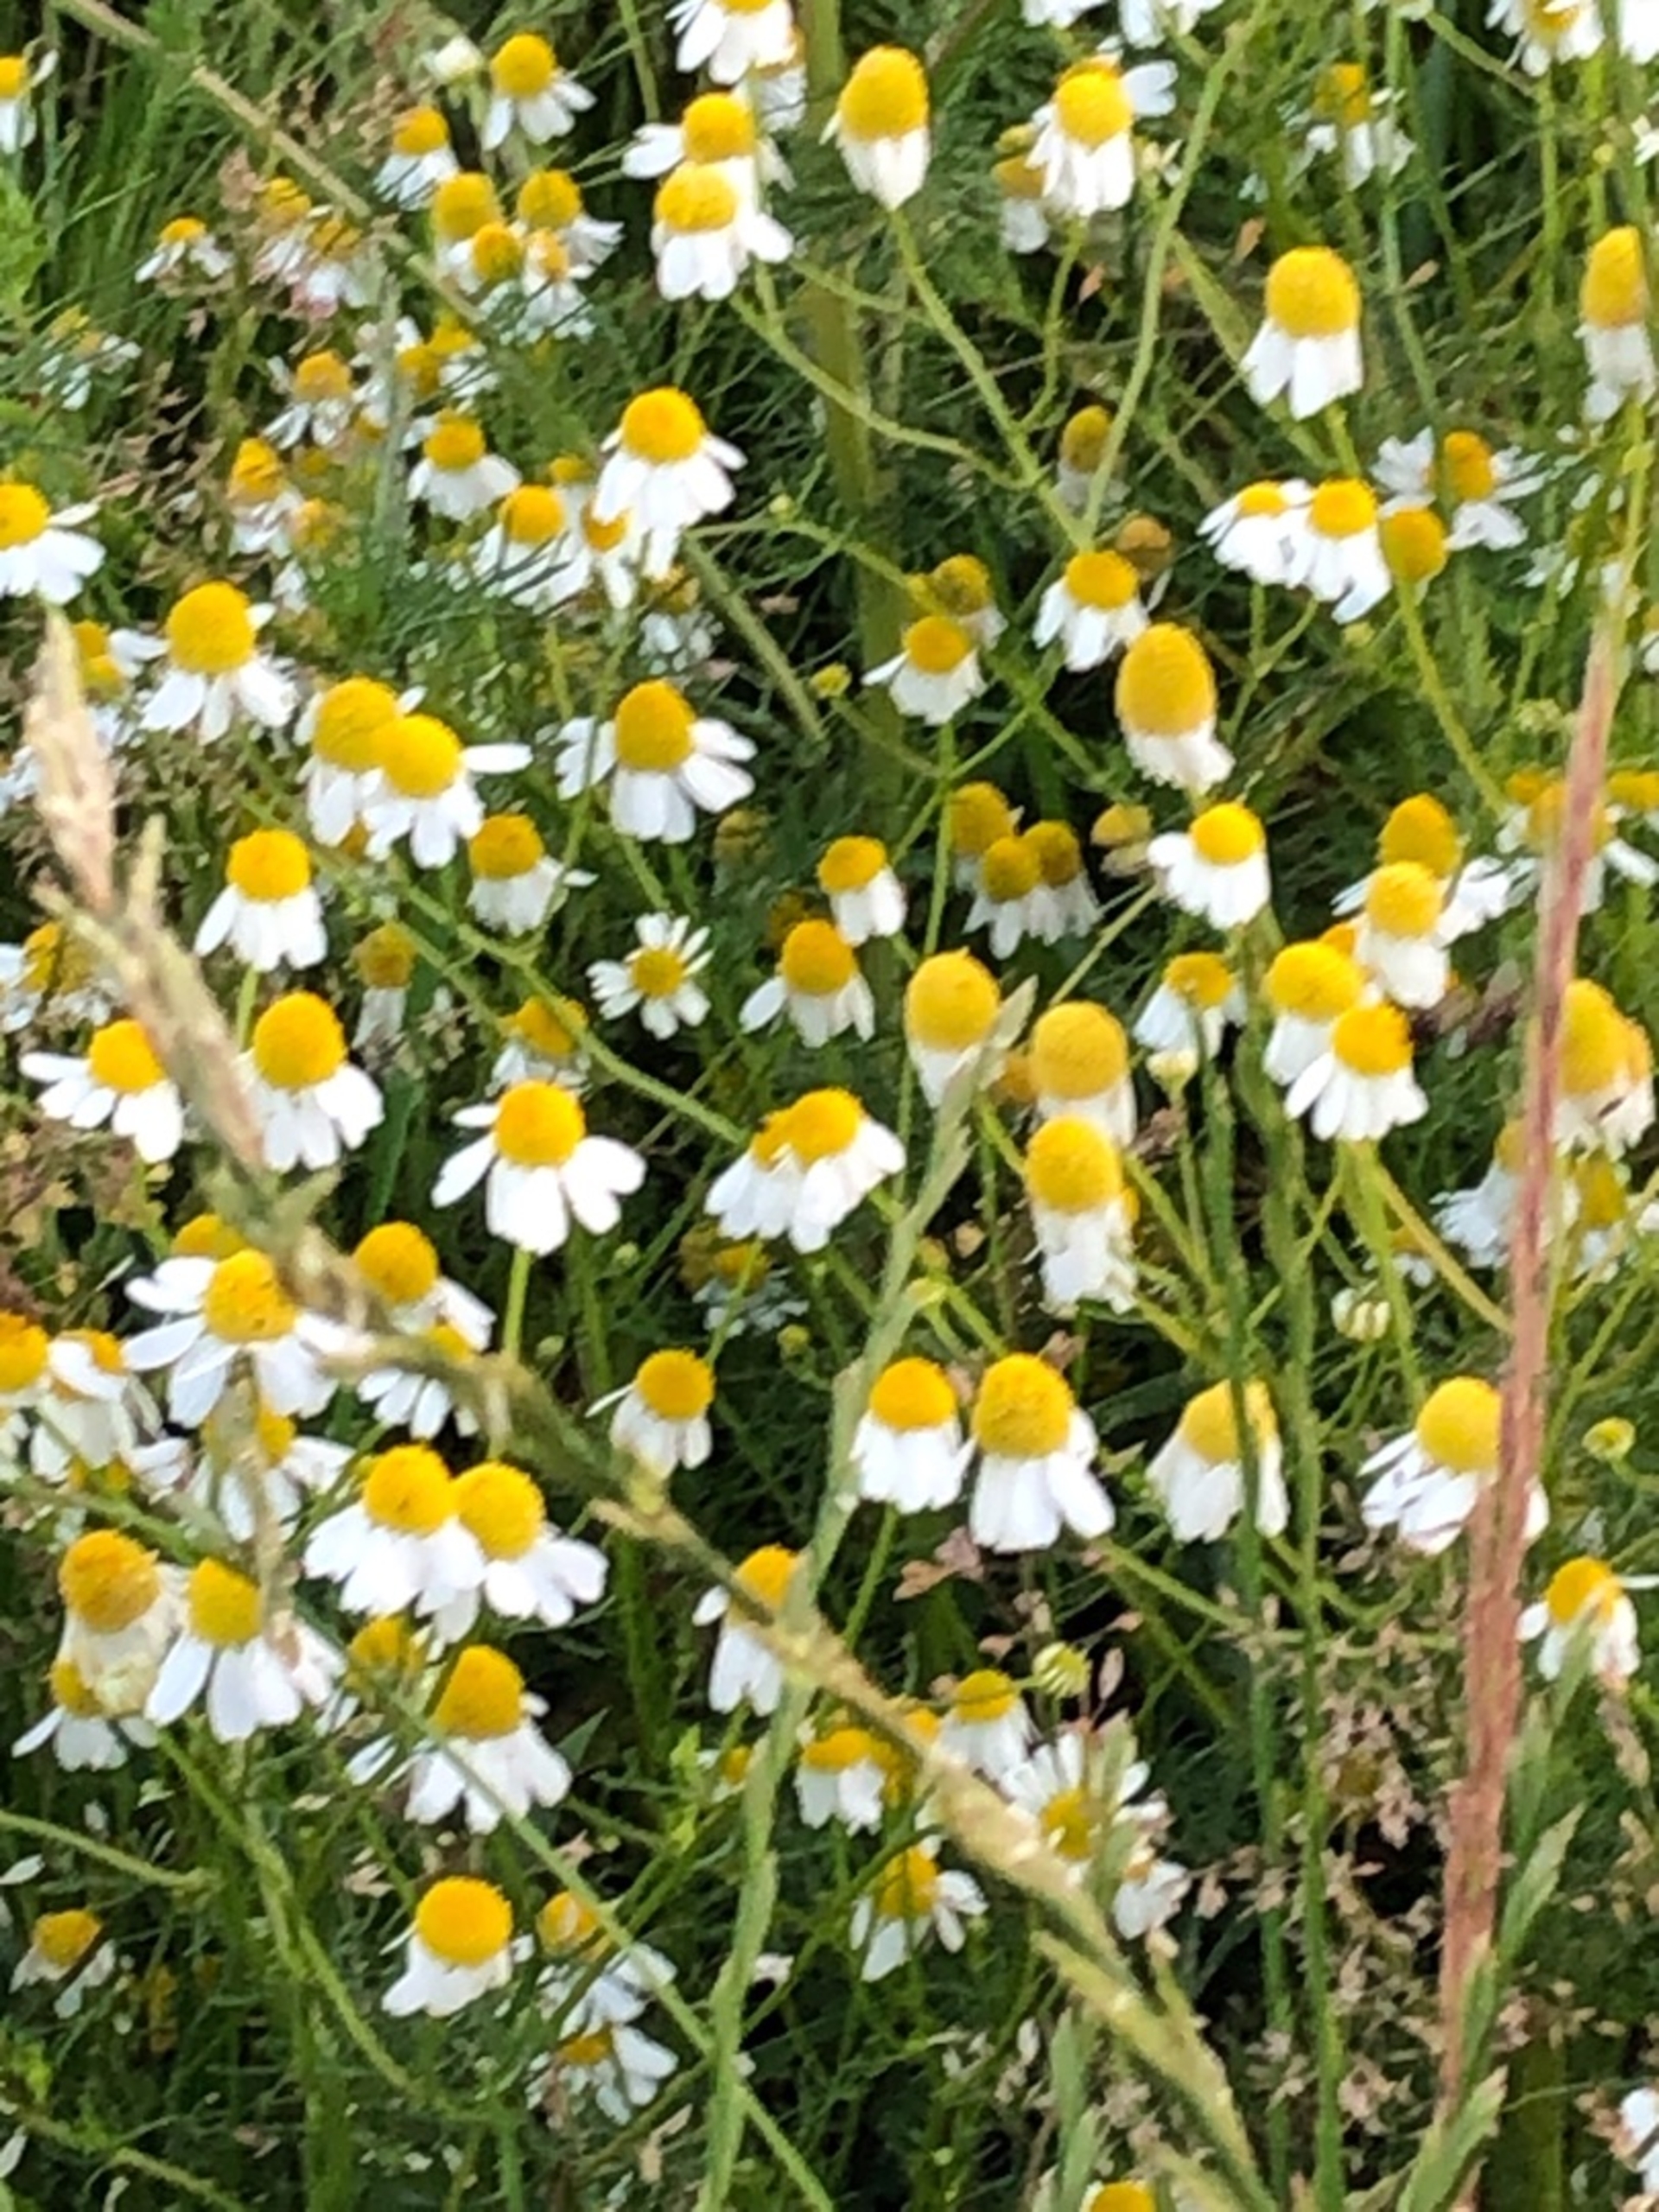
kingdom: Plantae
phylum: Tracheophyta
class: Magnoliopsida
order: Asterales
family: Asteraceae
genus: Matricaria
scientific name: Matricaria chamomilla
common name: Vellugtende kamille
